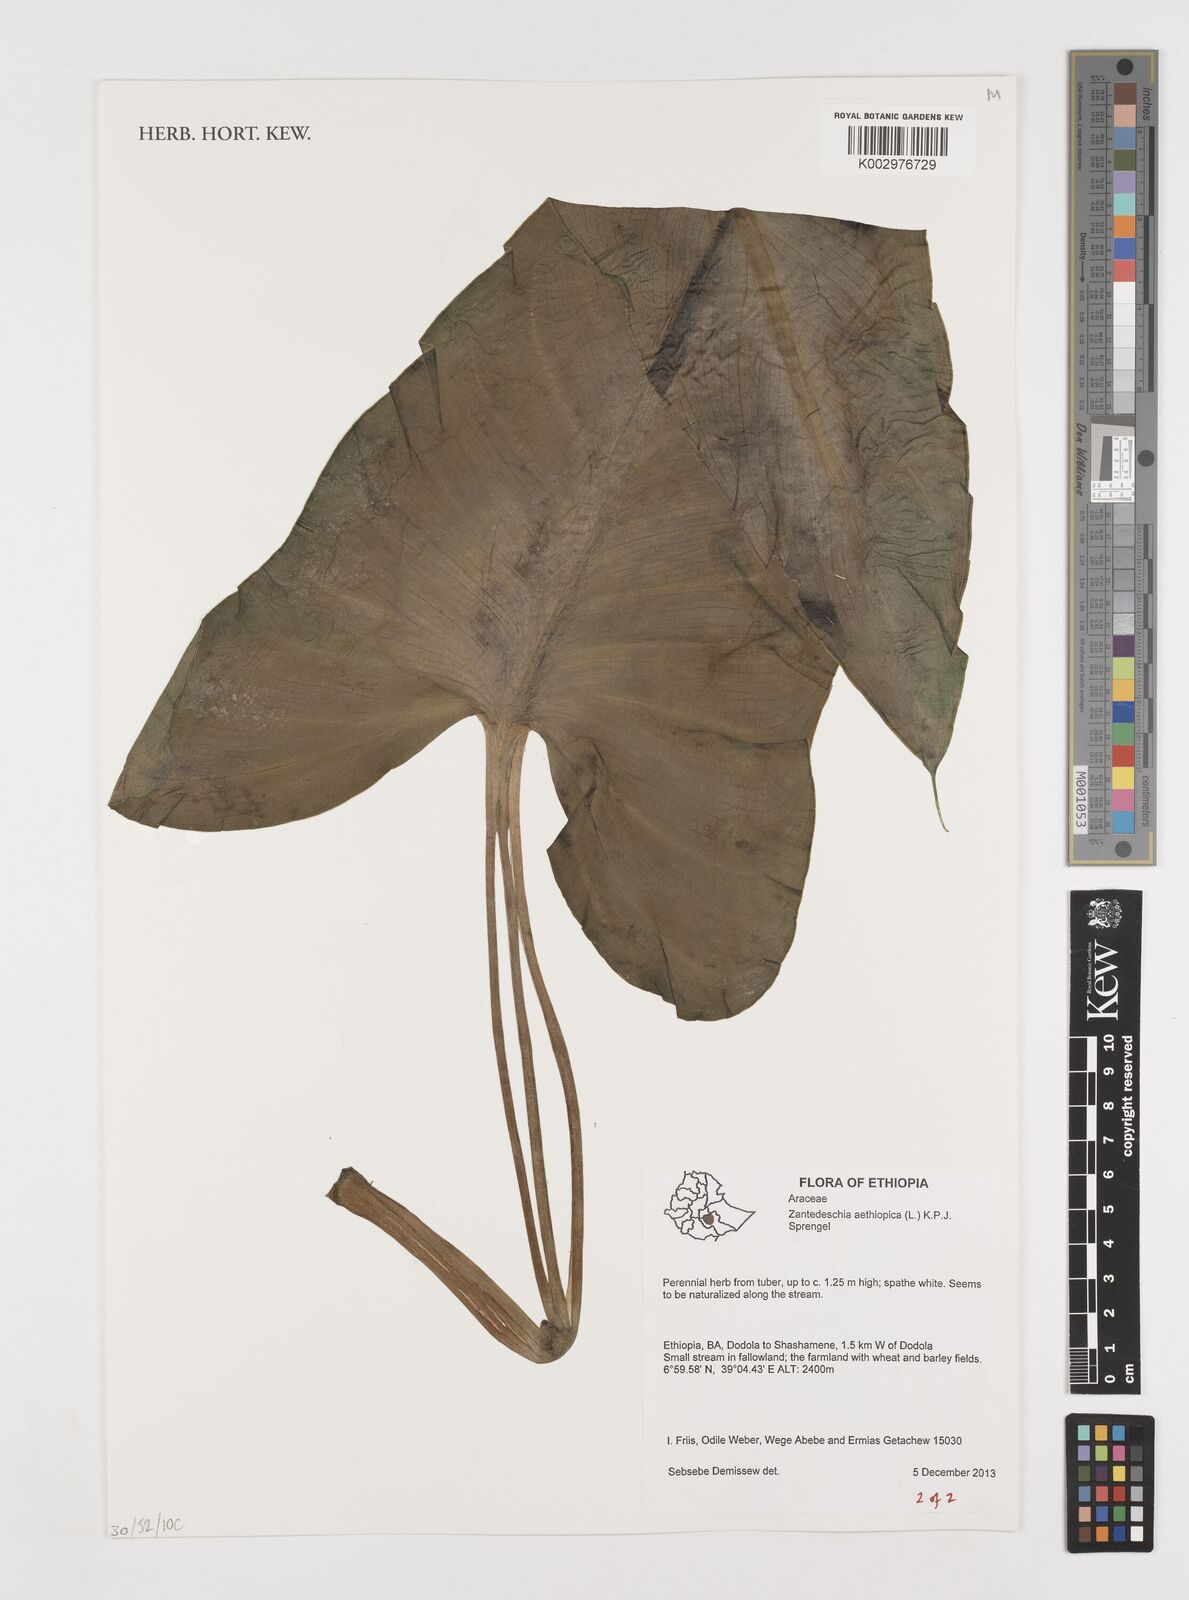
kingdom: Plantae
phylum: Tracheophyta
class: Liliopsida
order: Alismatales
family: Araceae
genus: Zantedeschia
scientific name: Zantedeschia aethiopica
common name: Altar-lily
